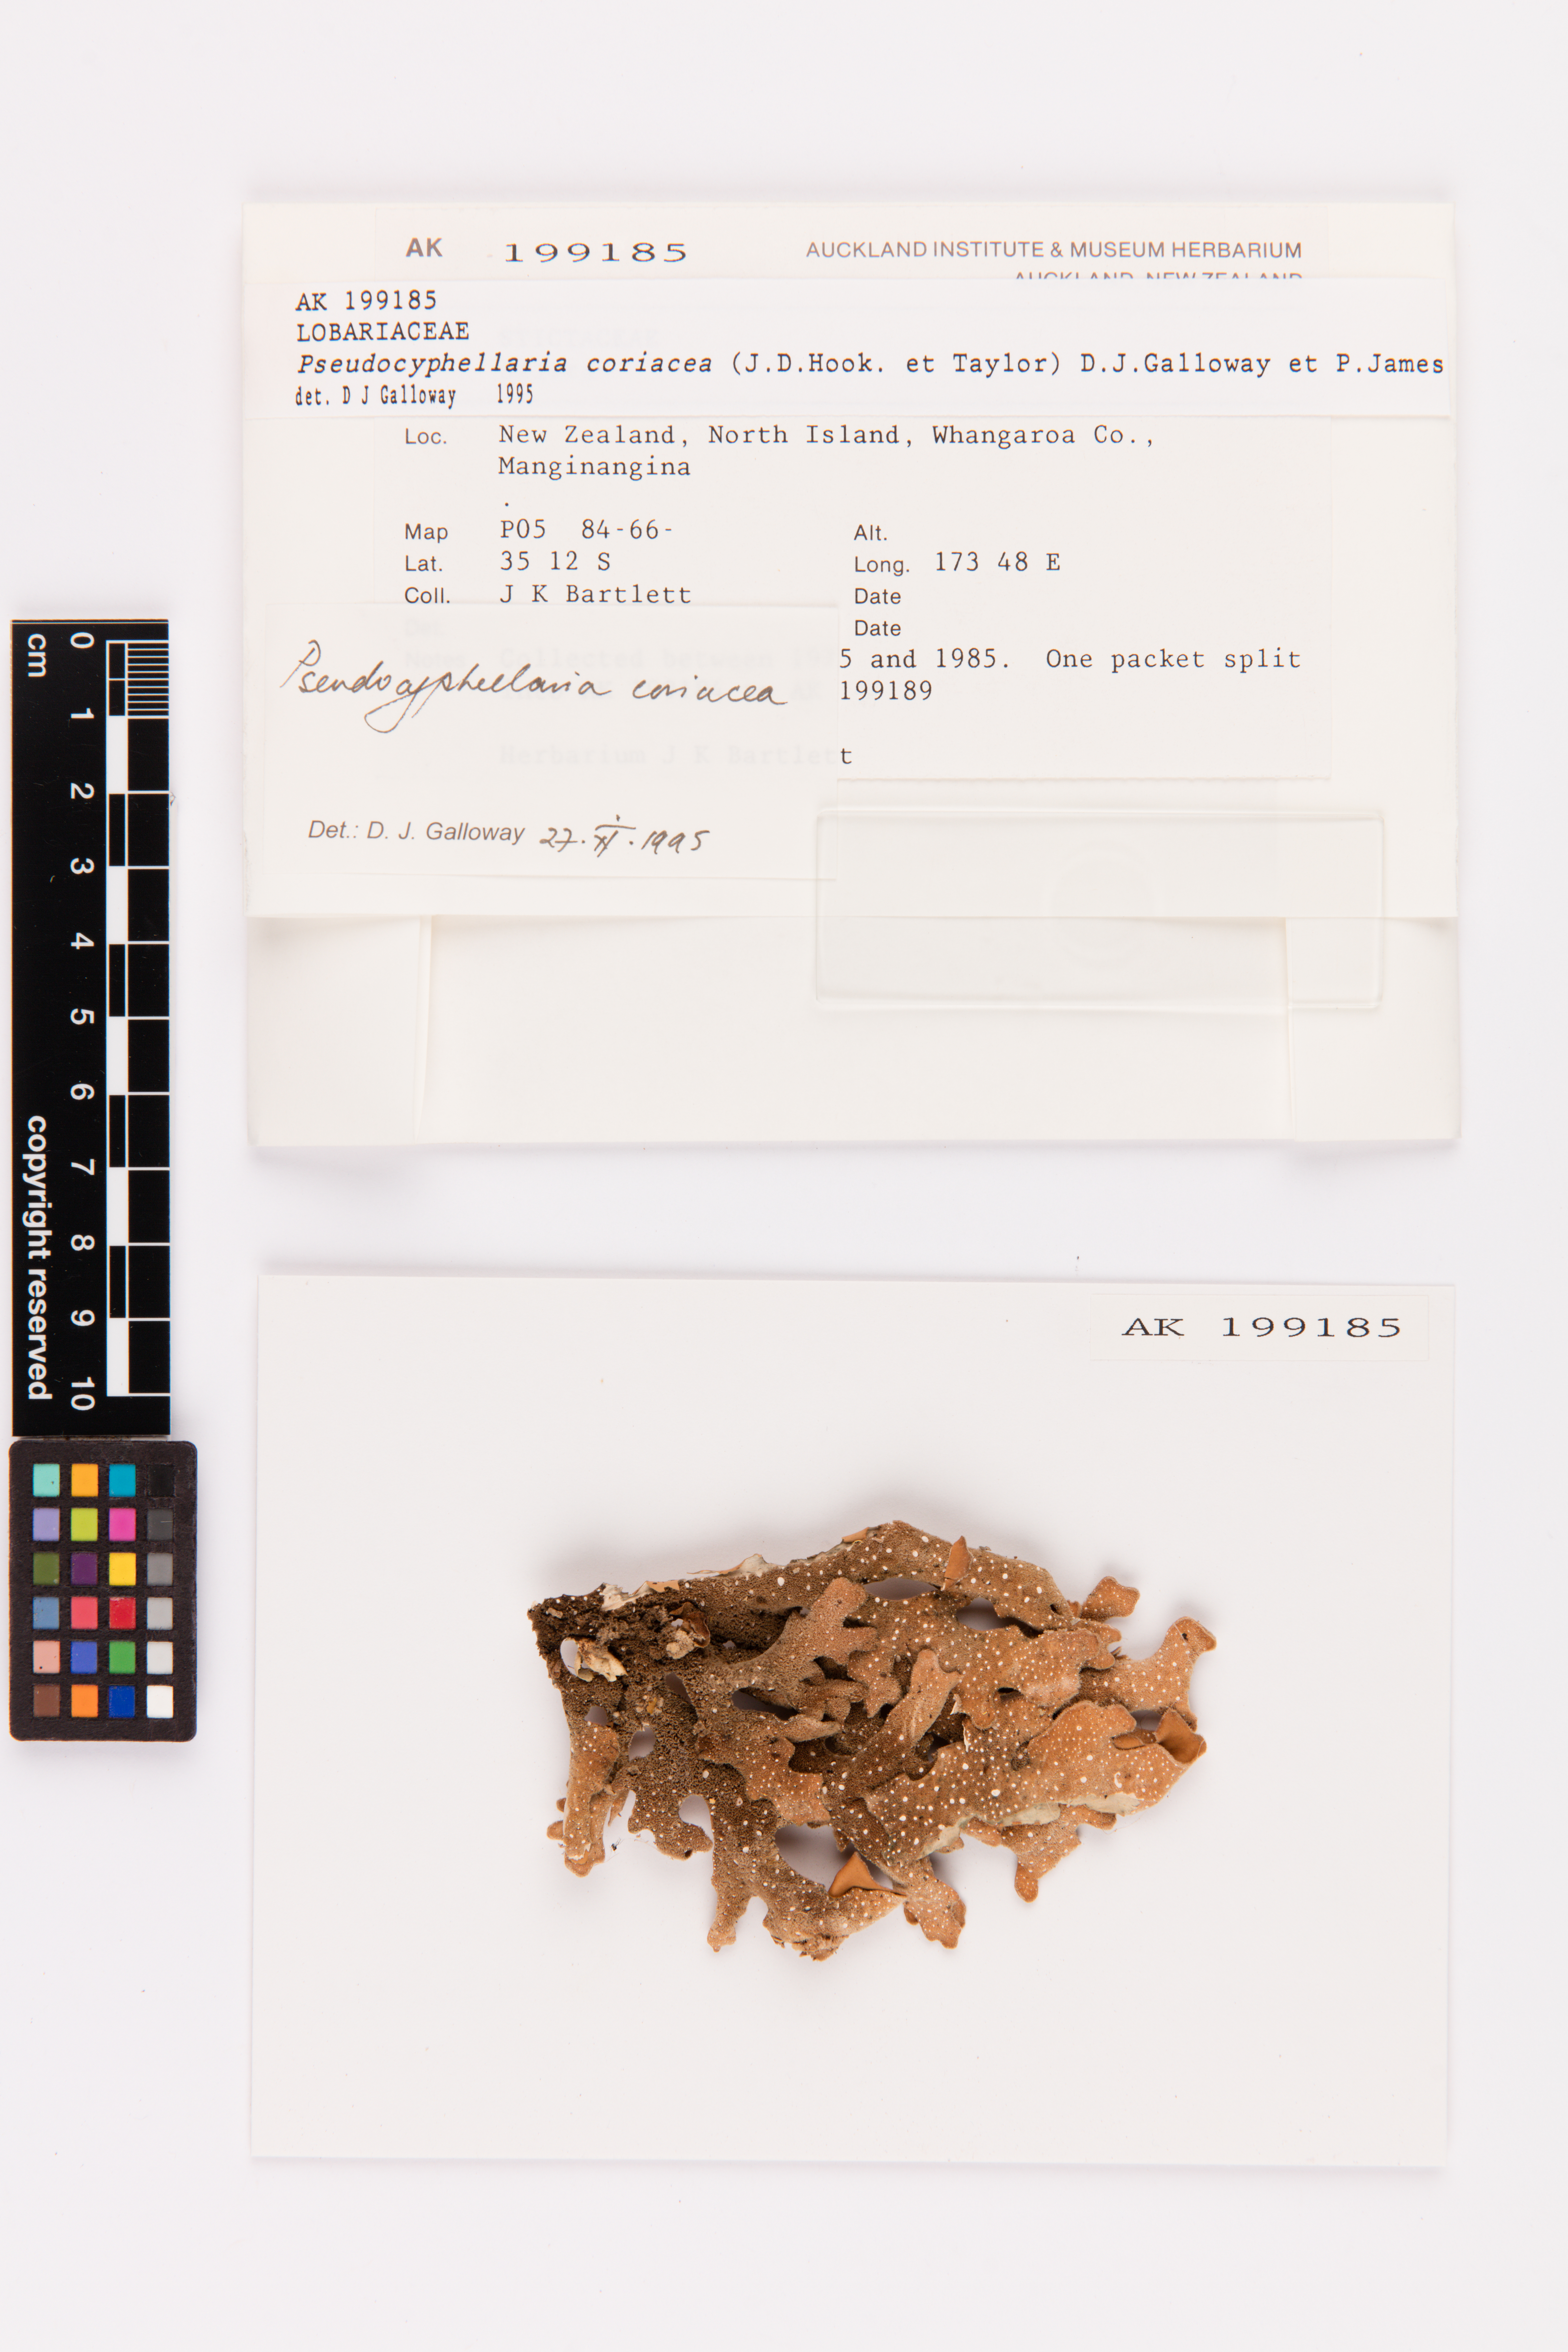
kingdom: Fungi
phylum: Ascomycota
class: Lecanoromycetes
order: Peltigerales
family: Lobariaceae
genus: Pseudocyphellaria
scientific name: Pseudocyphellaria coriacea
